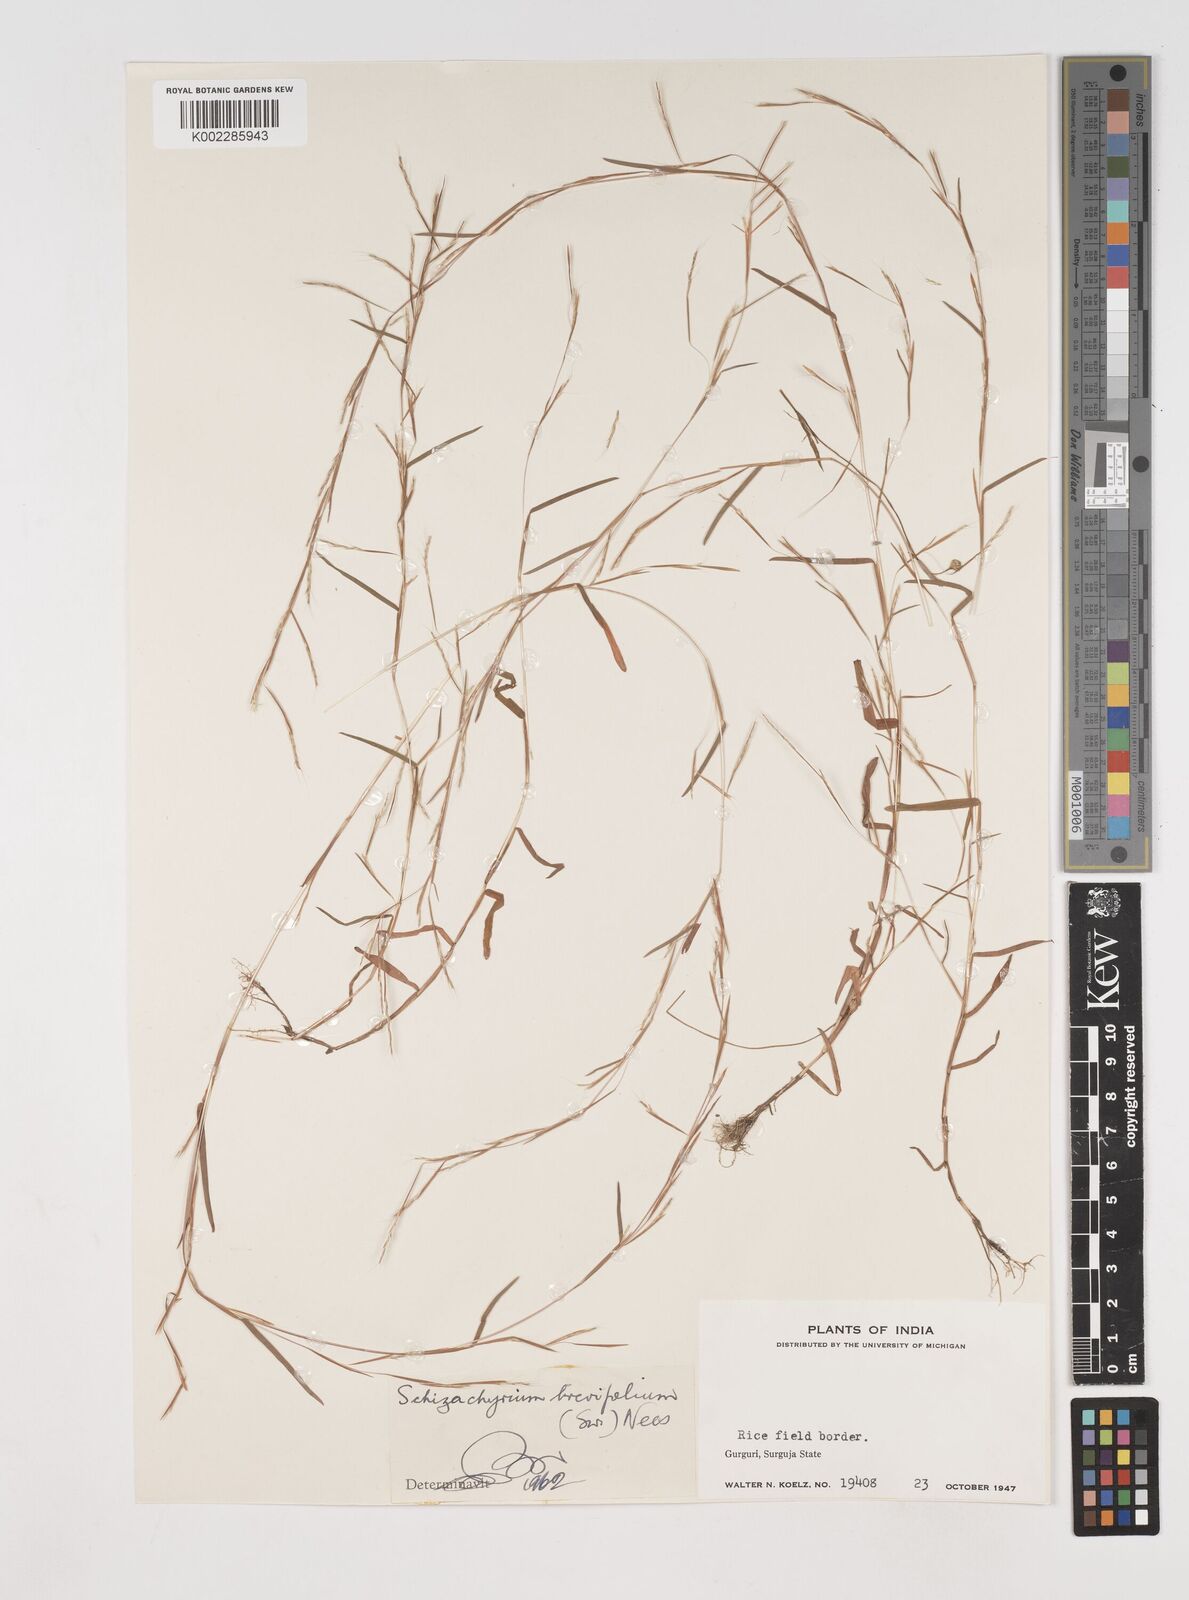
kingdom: Plantae
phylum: Tracheophyta
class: Liliopsida
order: Poales
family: Poaceae
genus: Schizachyrium
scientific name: Schizachyrium brevifolium
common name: Serillo dulce
